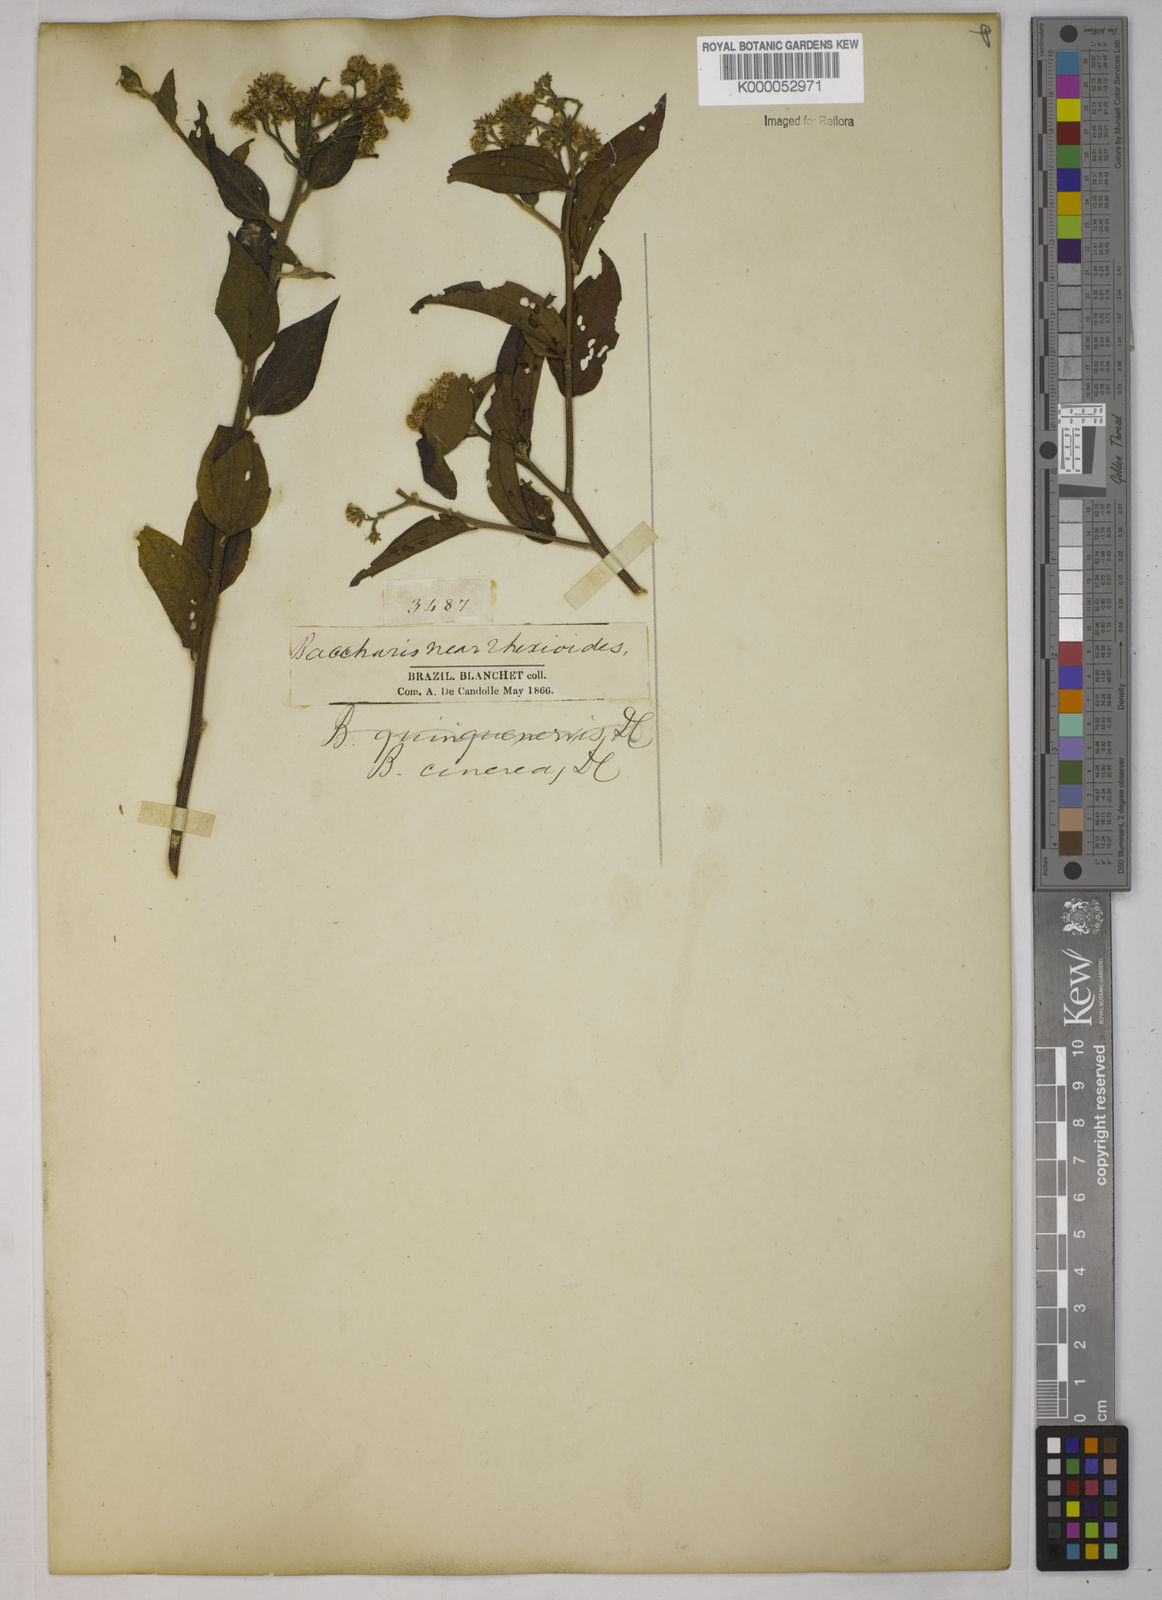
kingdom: Plantae
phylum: Tracheophyta
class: Magnoliopsida
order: Asterales
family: Asteraceae
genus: Baccharis
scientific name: Baccharis trinervis
